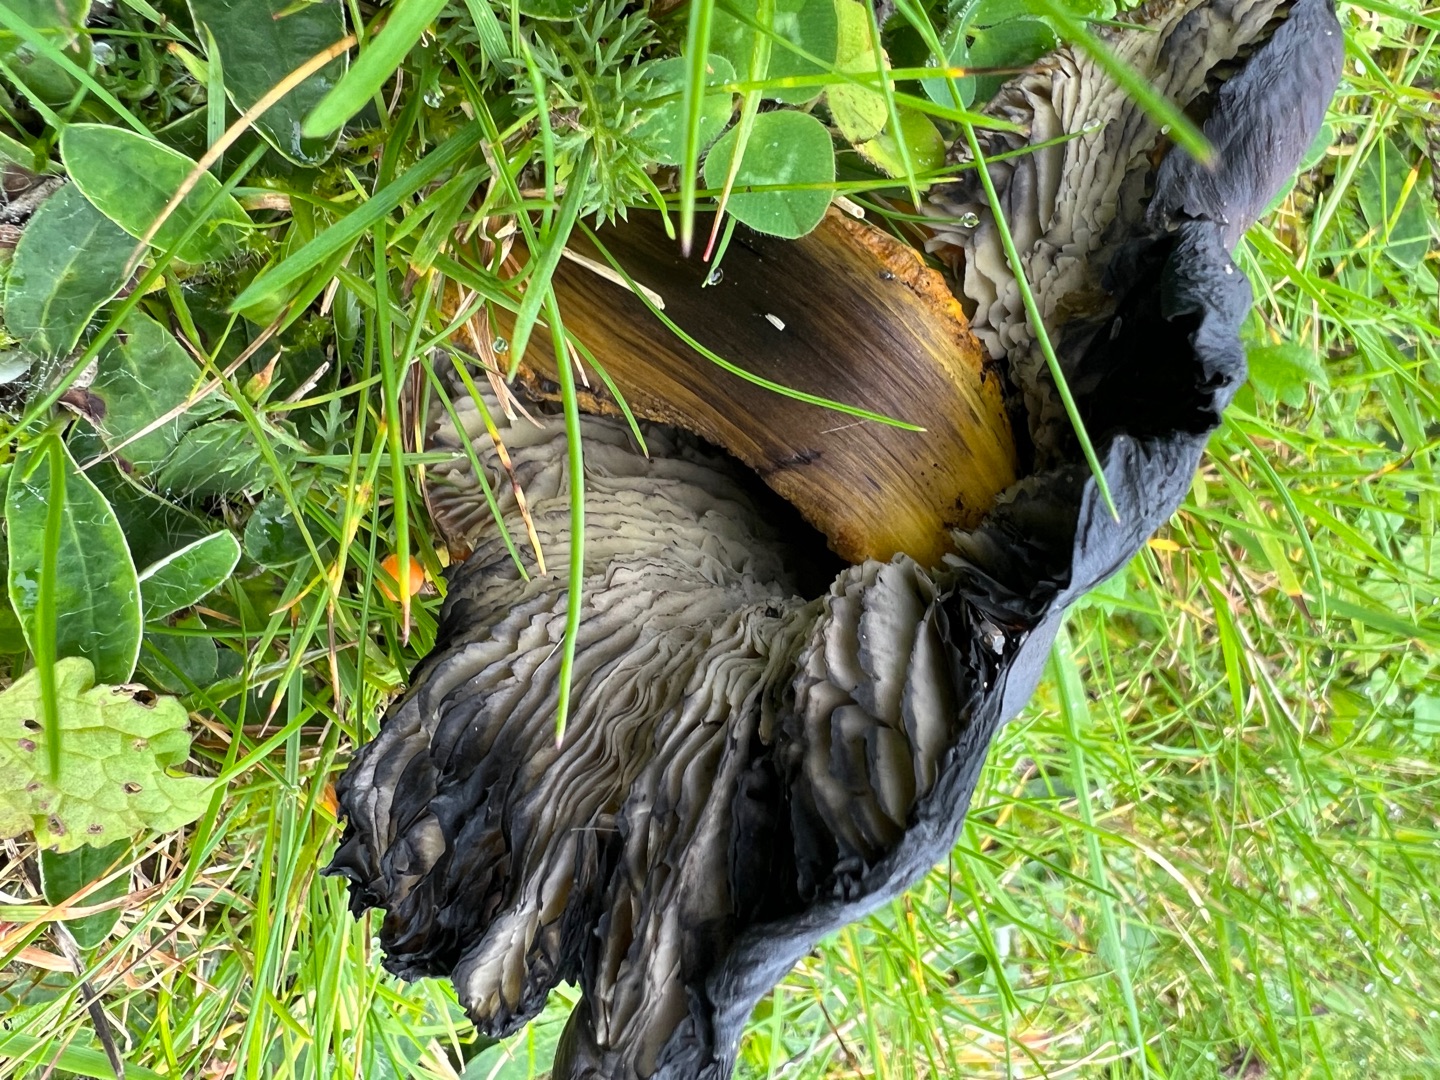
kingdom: Fungi
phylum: Basidiomycota
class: Agaricomycetes
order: Agaricales
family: Hygrophoraceae
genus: Hygrocybe
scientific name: Hygrocybe conica
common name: Kegle-vokshat
